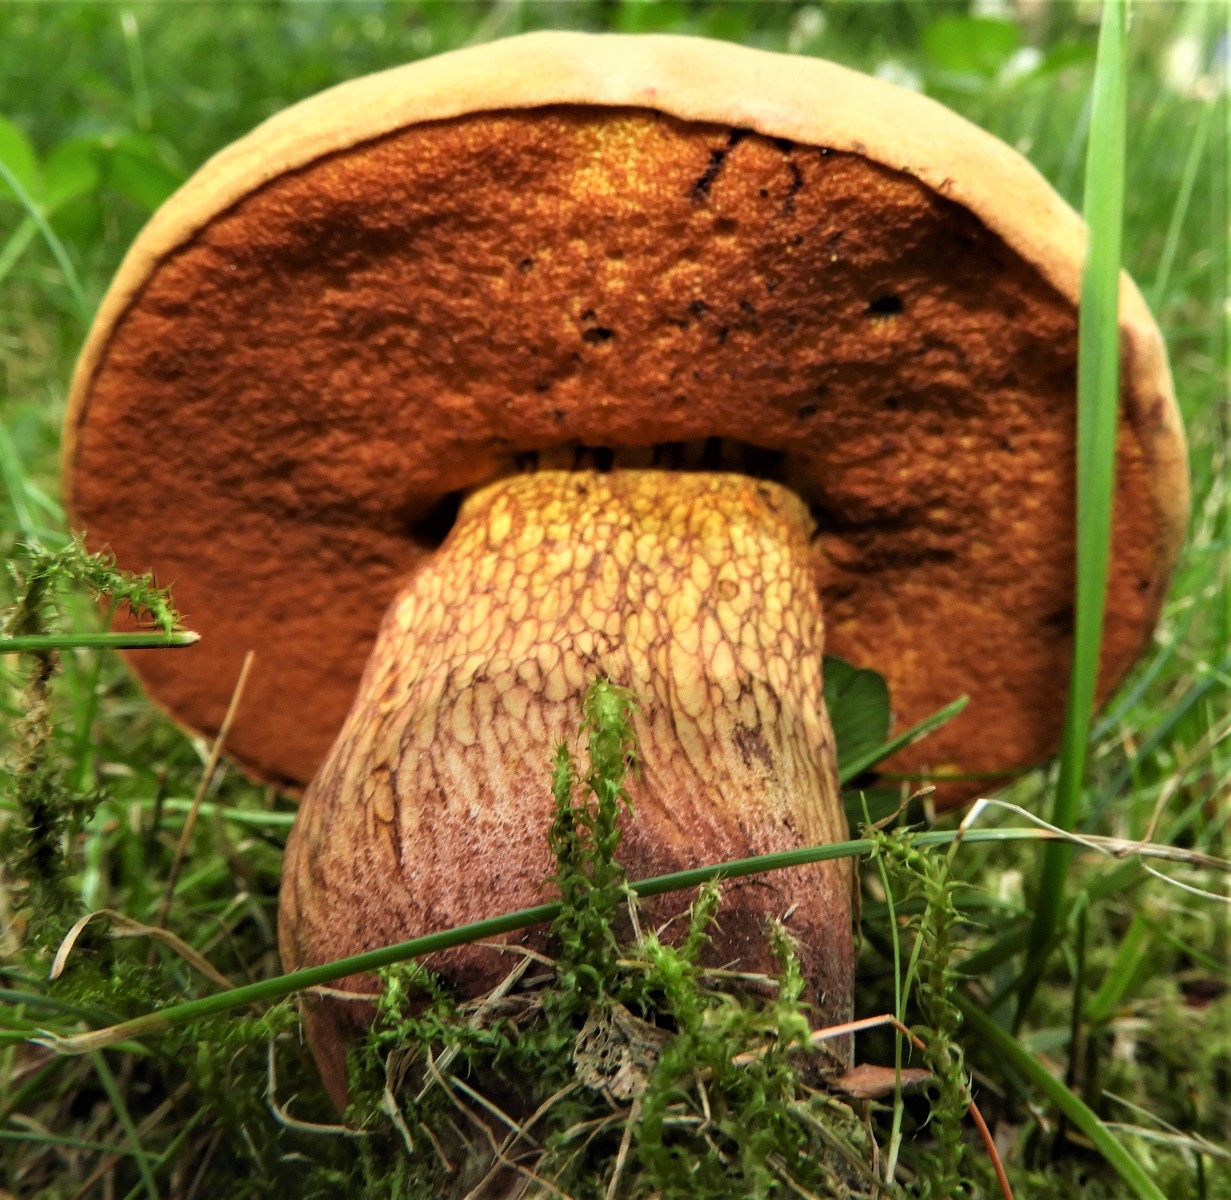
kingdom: Fungi
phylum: Basidiomycota
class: Agaricomycetes
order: Boletales
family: Boletaceae
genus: Suillellus
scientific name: Suillellus luridus
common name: netstokket indigorørhat
